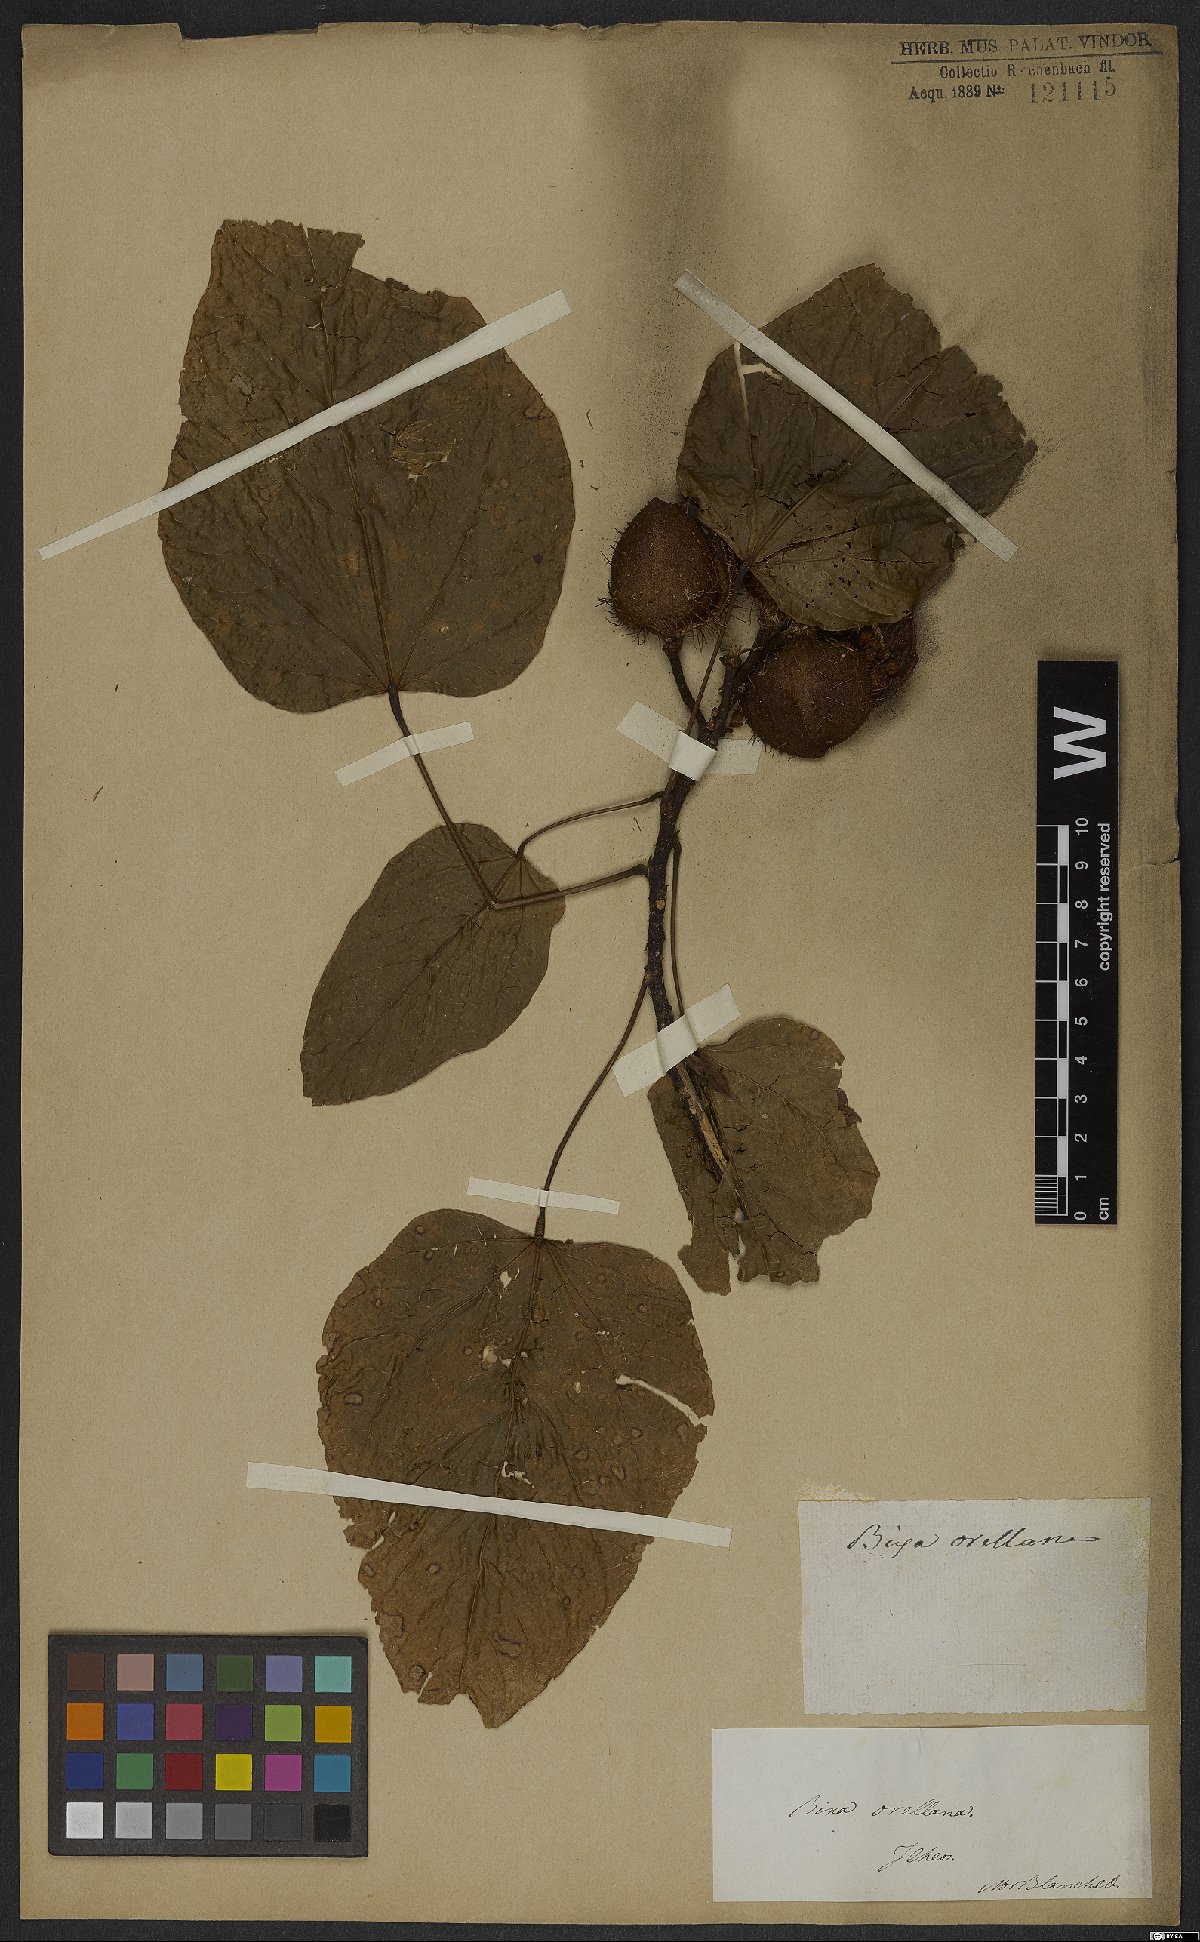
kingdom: Plantae
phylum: Tracheophyta
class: Magnoliopsida
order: Malvales
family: Bixaceae
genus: Bixa
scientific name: Bixa orellana
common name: Lipsticktree
